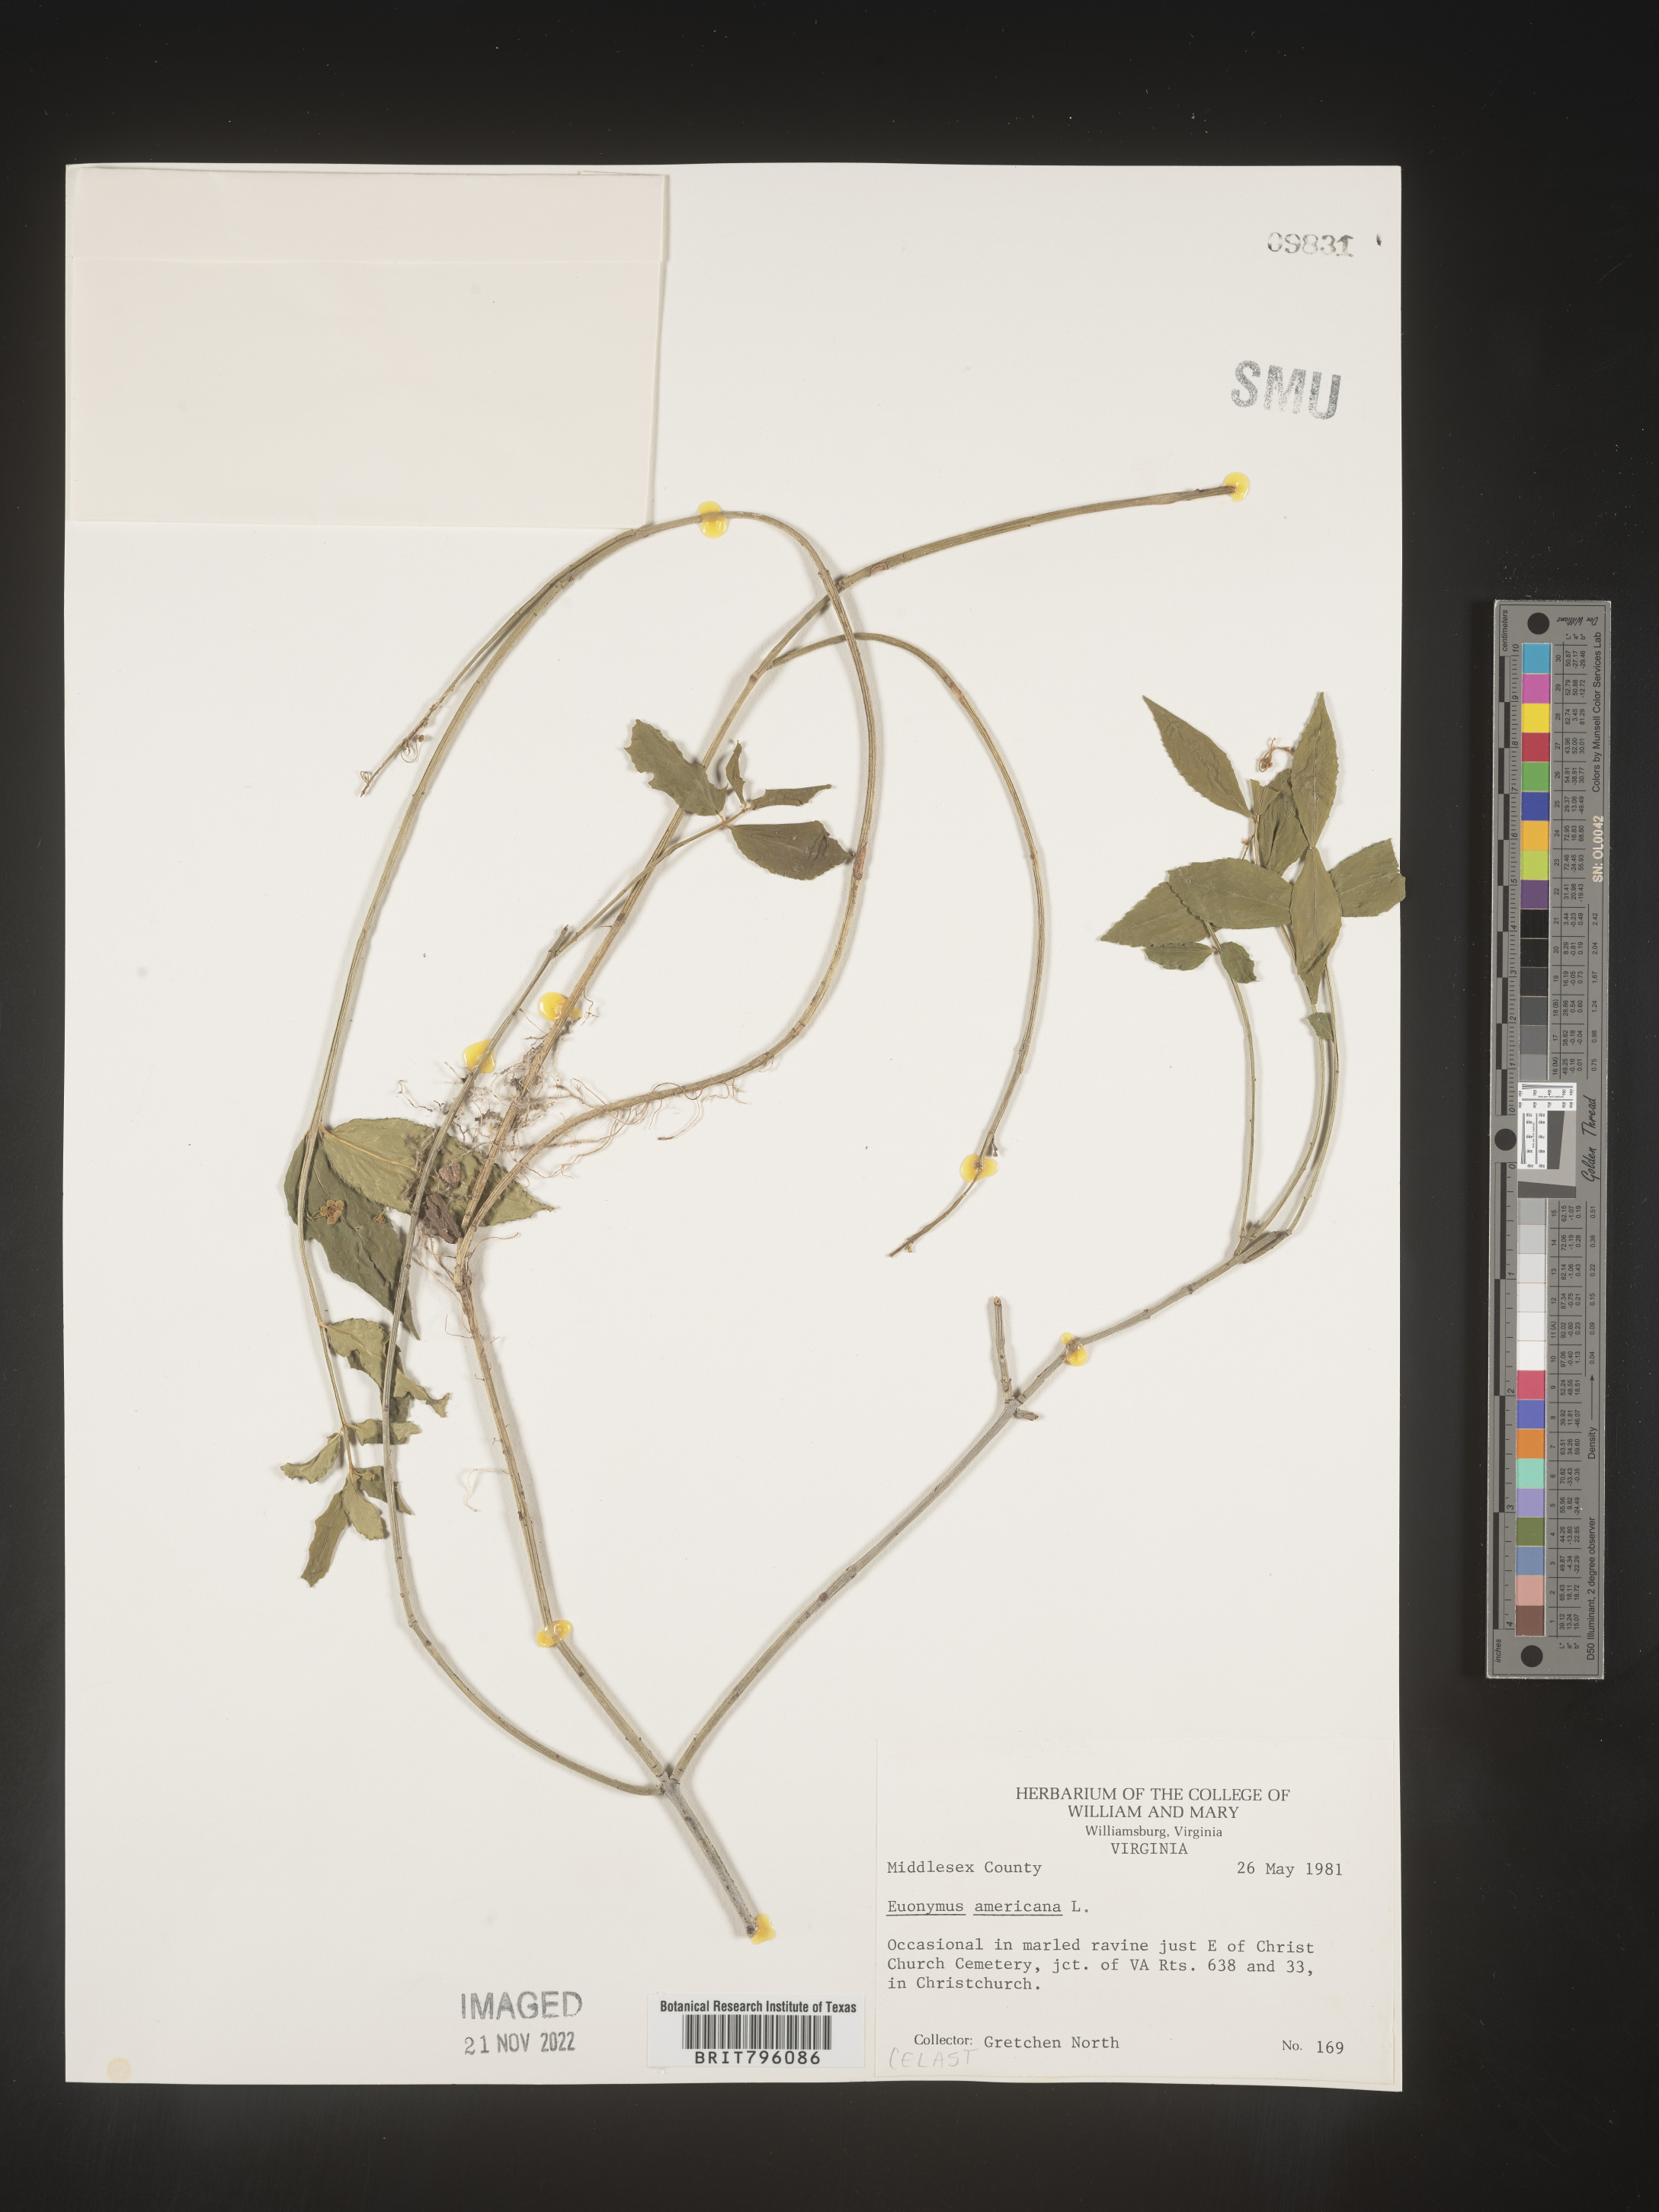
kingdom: Plantae
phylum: Tracheophyta
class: Magnoliopsida
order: Celastrales
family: Celastraceae
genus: Euonymus
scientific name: Euonymus americanus
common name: Bursting-heart
